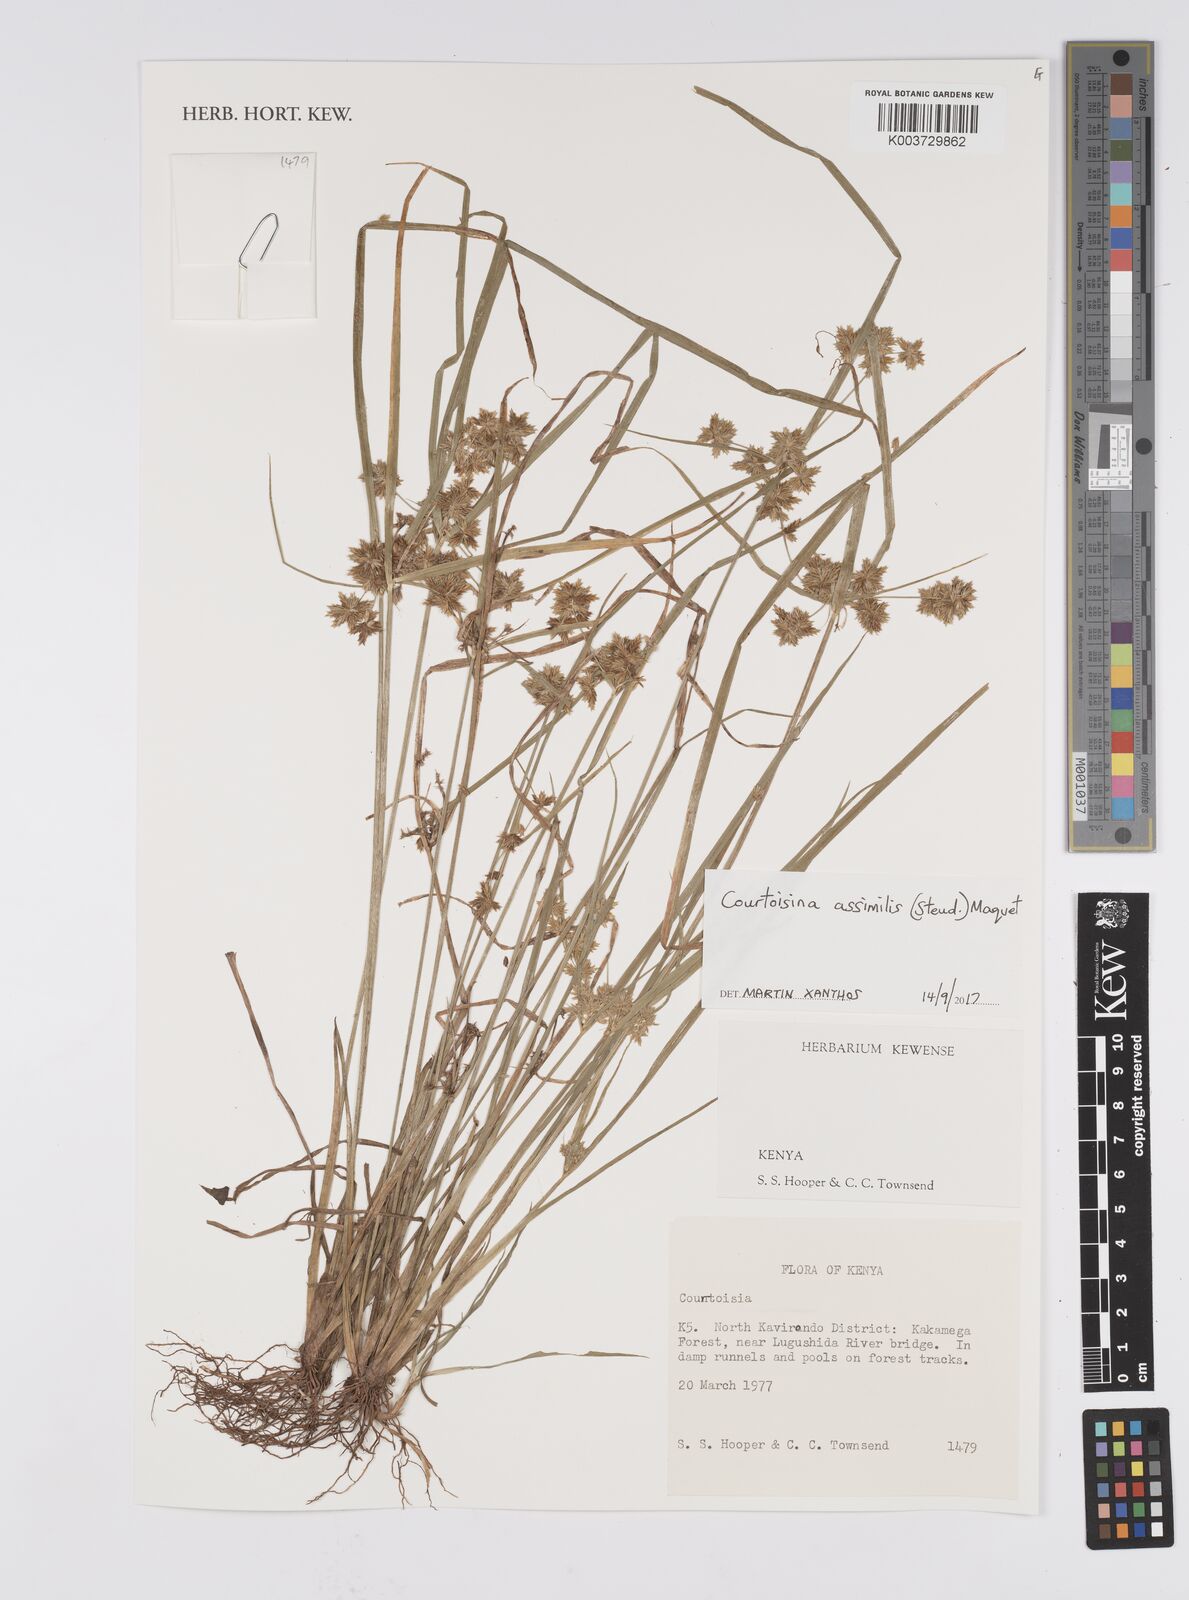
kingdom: Plantae
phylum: Tracheophyta
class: Liliopsida
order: Poales
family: Cyperaceae
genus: Cyperus
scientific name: Cyperus assimilis
